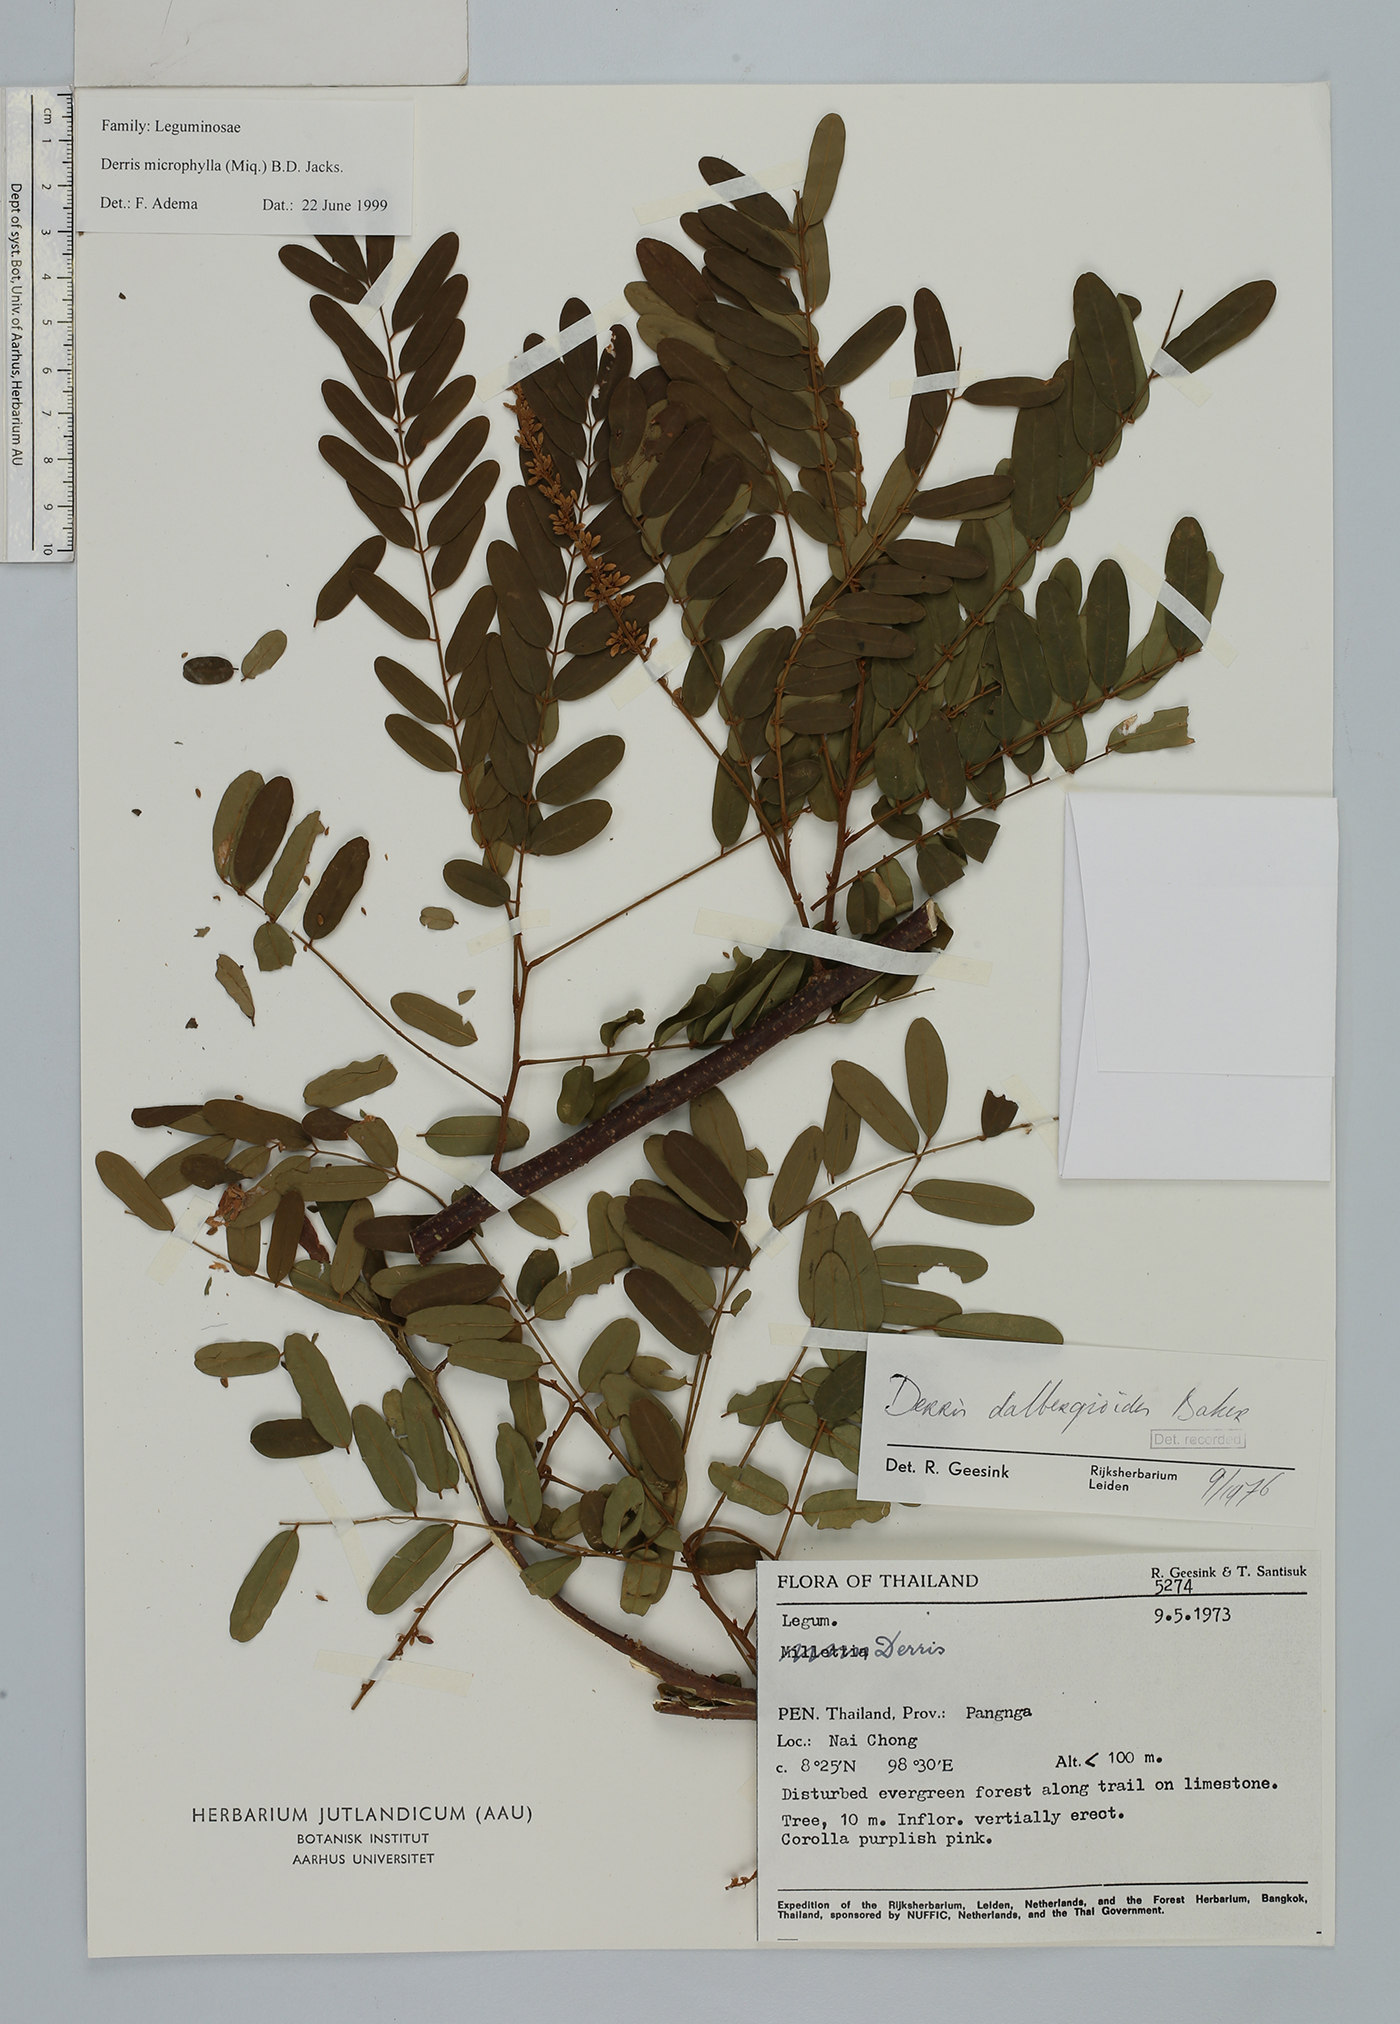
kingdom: Plantae
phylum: Tracheophyta
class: Magnoliopsida
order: Fabales
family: Fabaceae
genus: Brachypterum
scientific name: Brachypterum microphyllum
